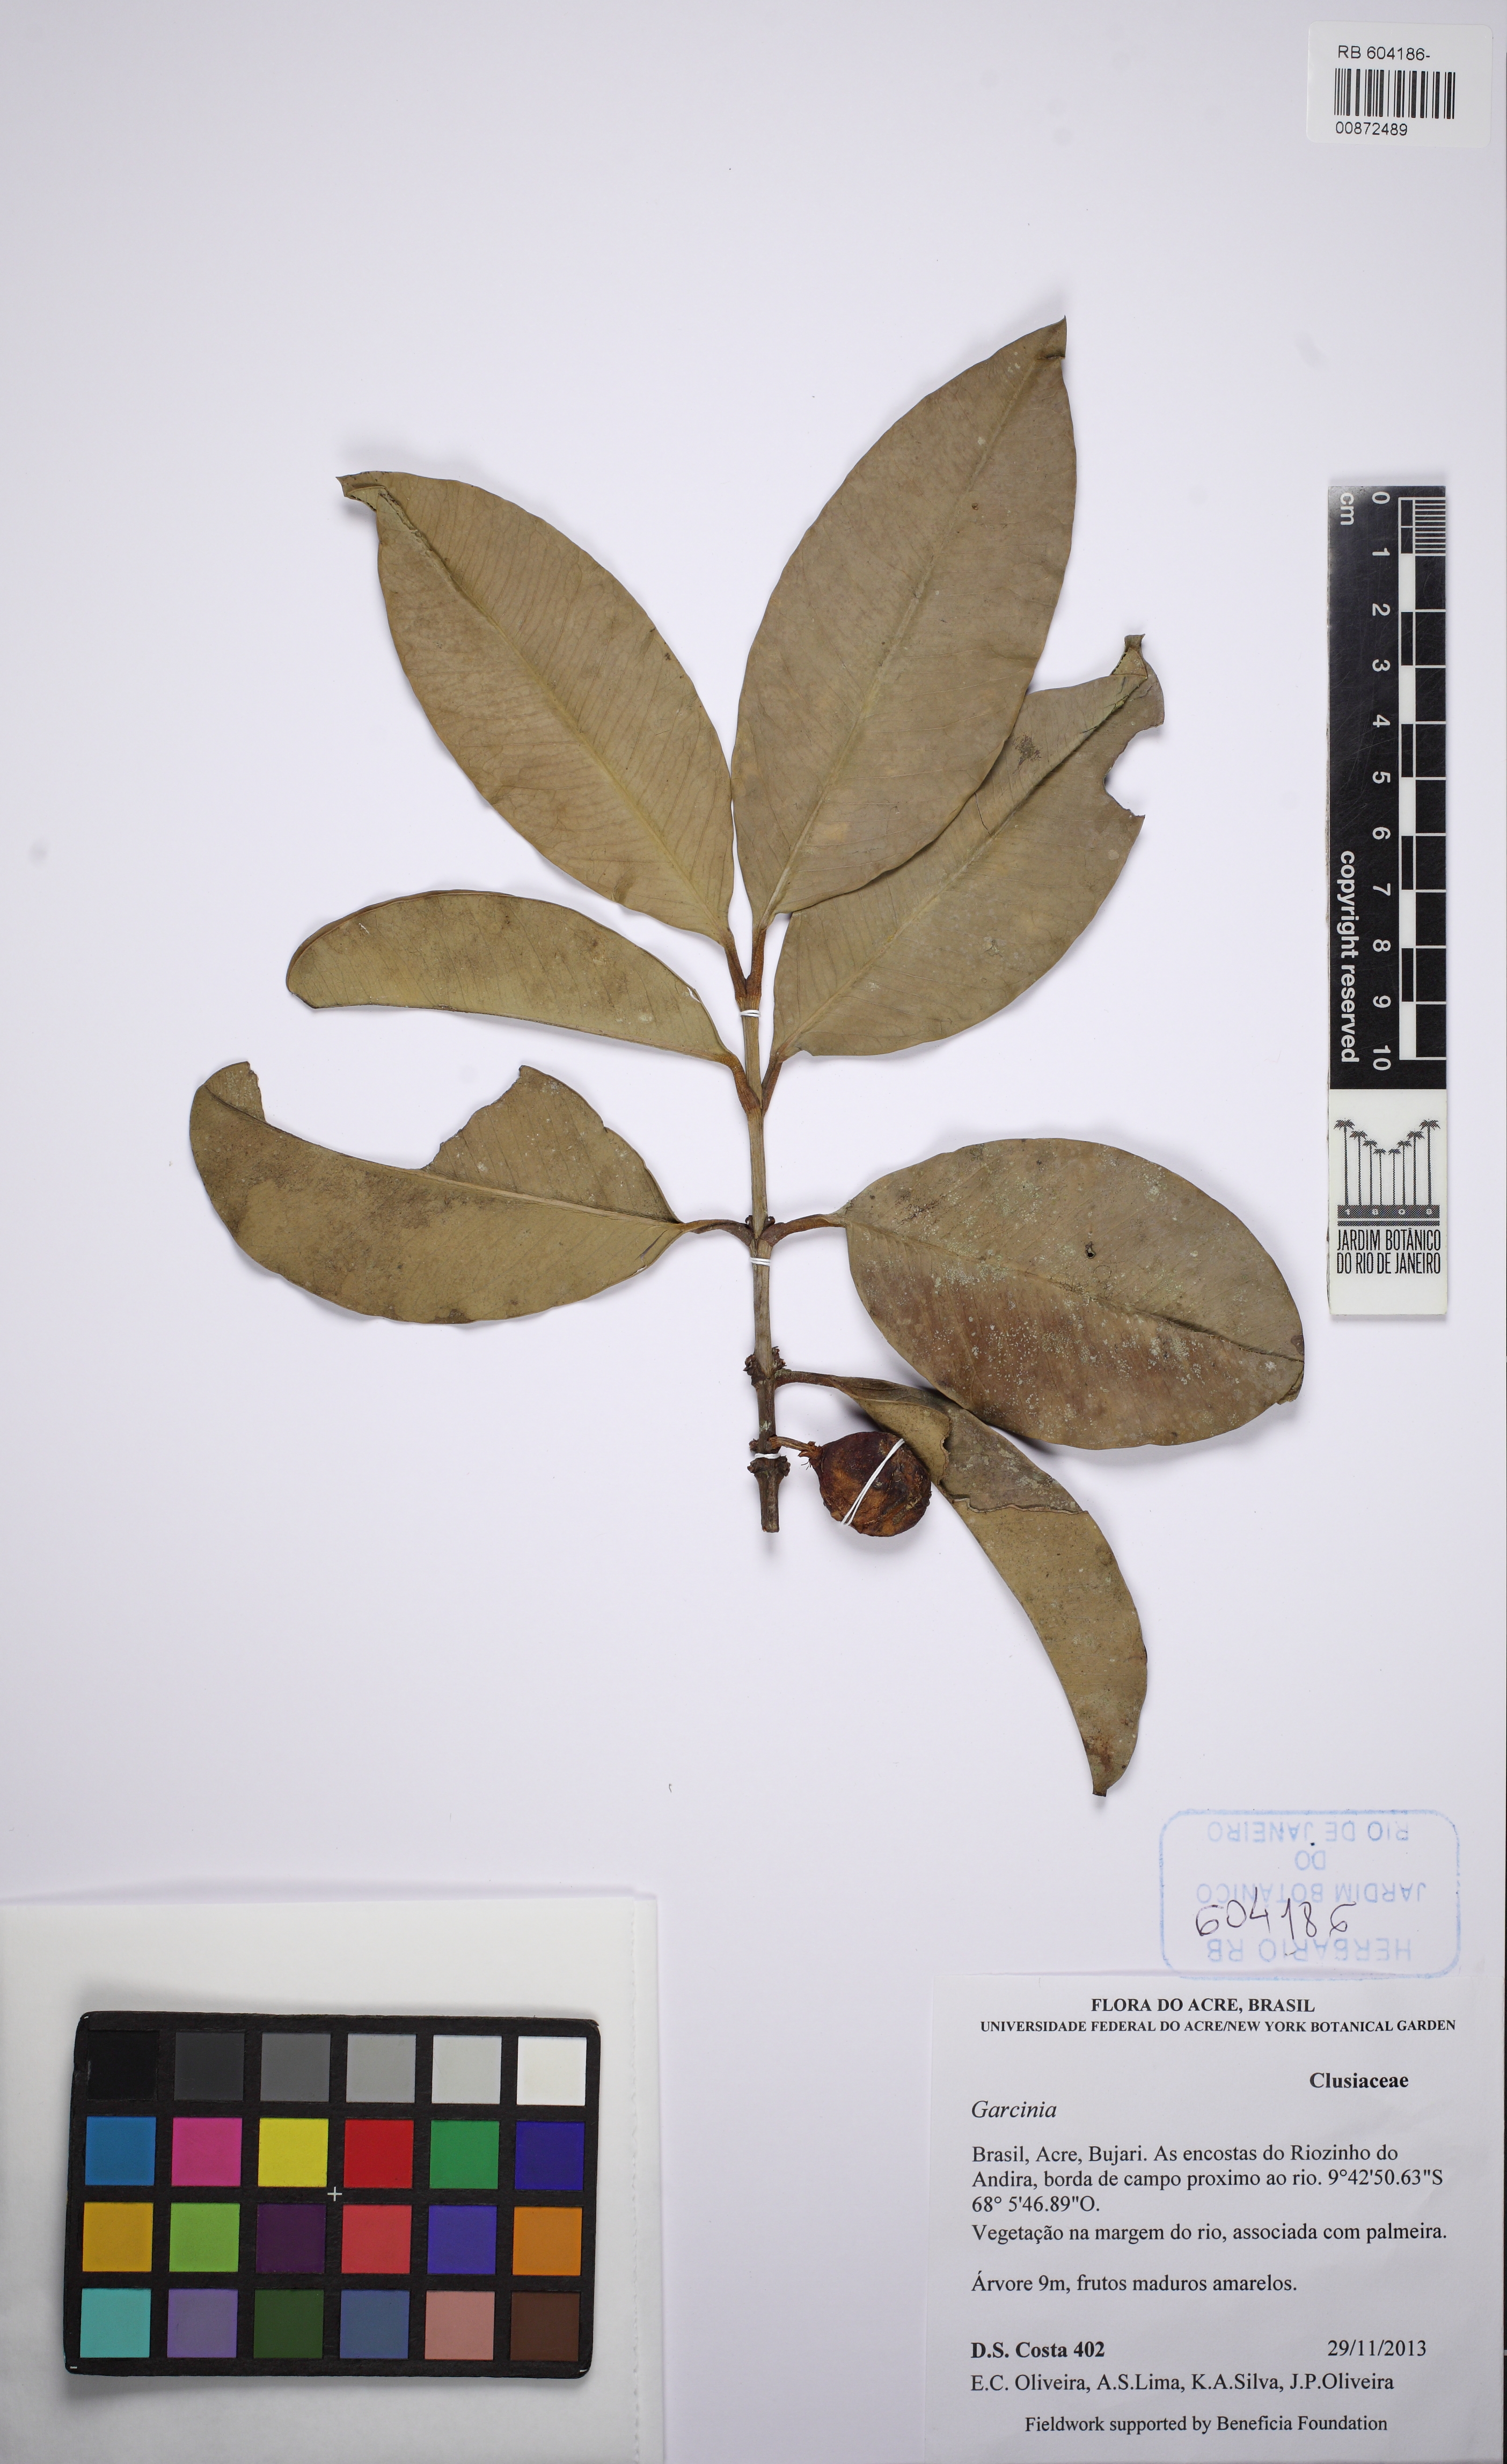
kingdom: Plantae
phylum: Tracheophyta
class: Magnoliopsida
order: Malpighiales
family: Clusiaceae
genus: Garcinia
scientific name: Garcinia fluviatilis
